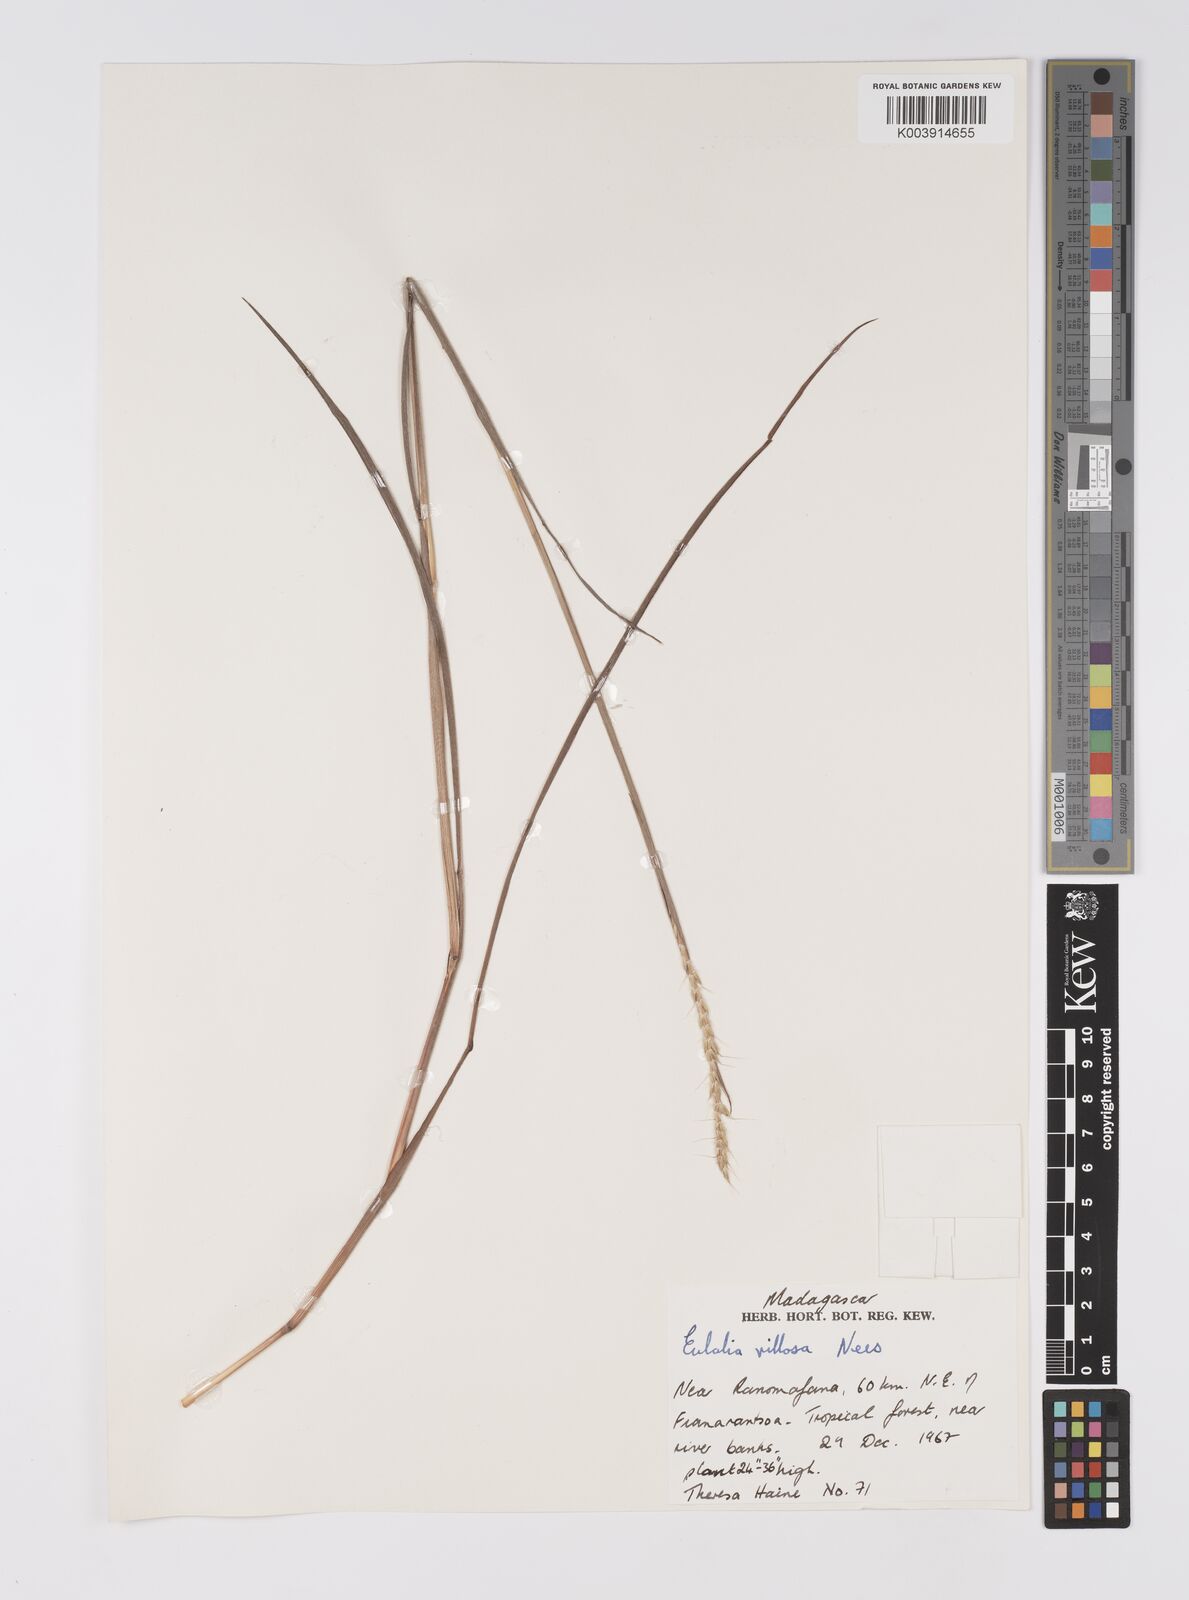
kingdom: Plantae
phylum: Tracheophyta
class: Liliopsida
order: Poales
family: Poaceae
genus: Eulalia
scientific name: Eulalia villosa
